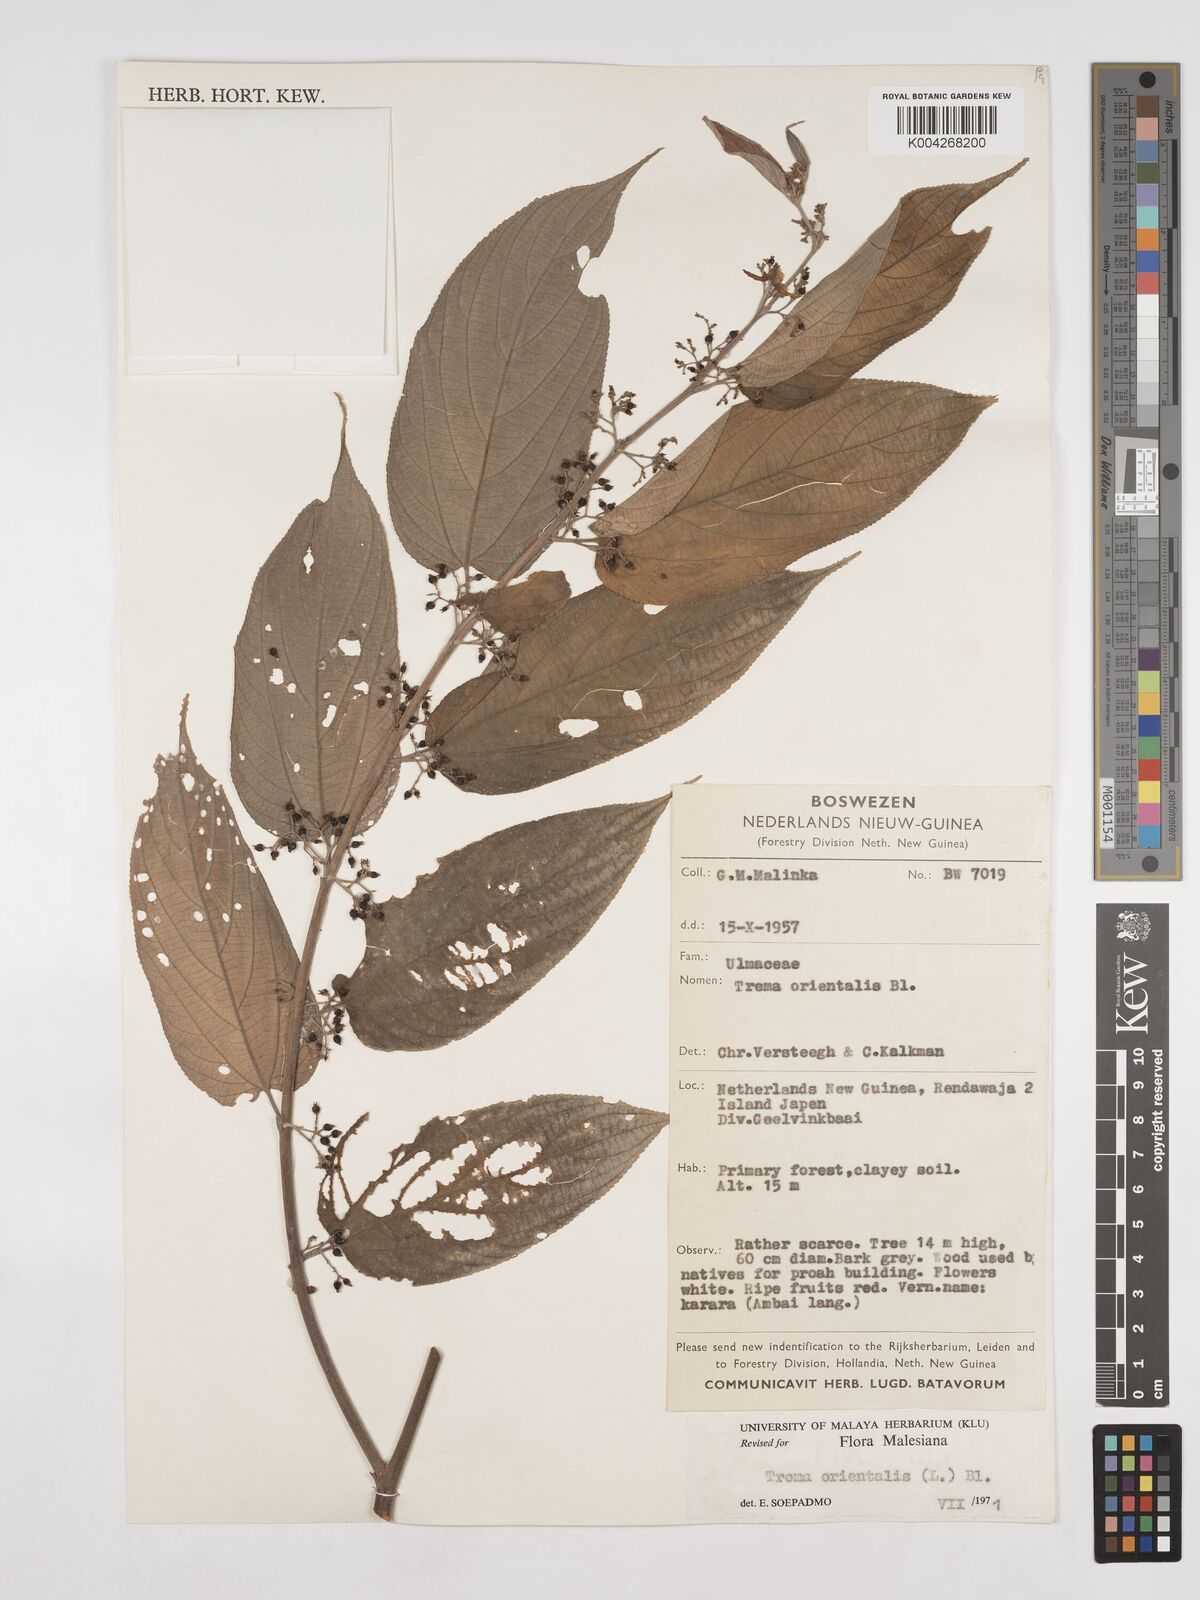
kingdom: Plantae
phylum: Tracheophyta
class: Magnoliopsida
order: Rosales
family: Cannabaceae
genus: Trema
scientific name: Trema orientale
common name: Indian charcoal tree
